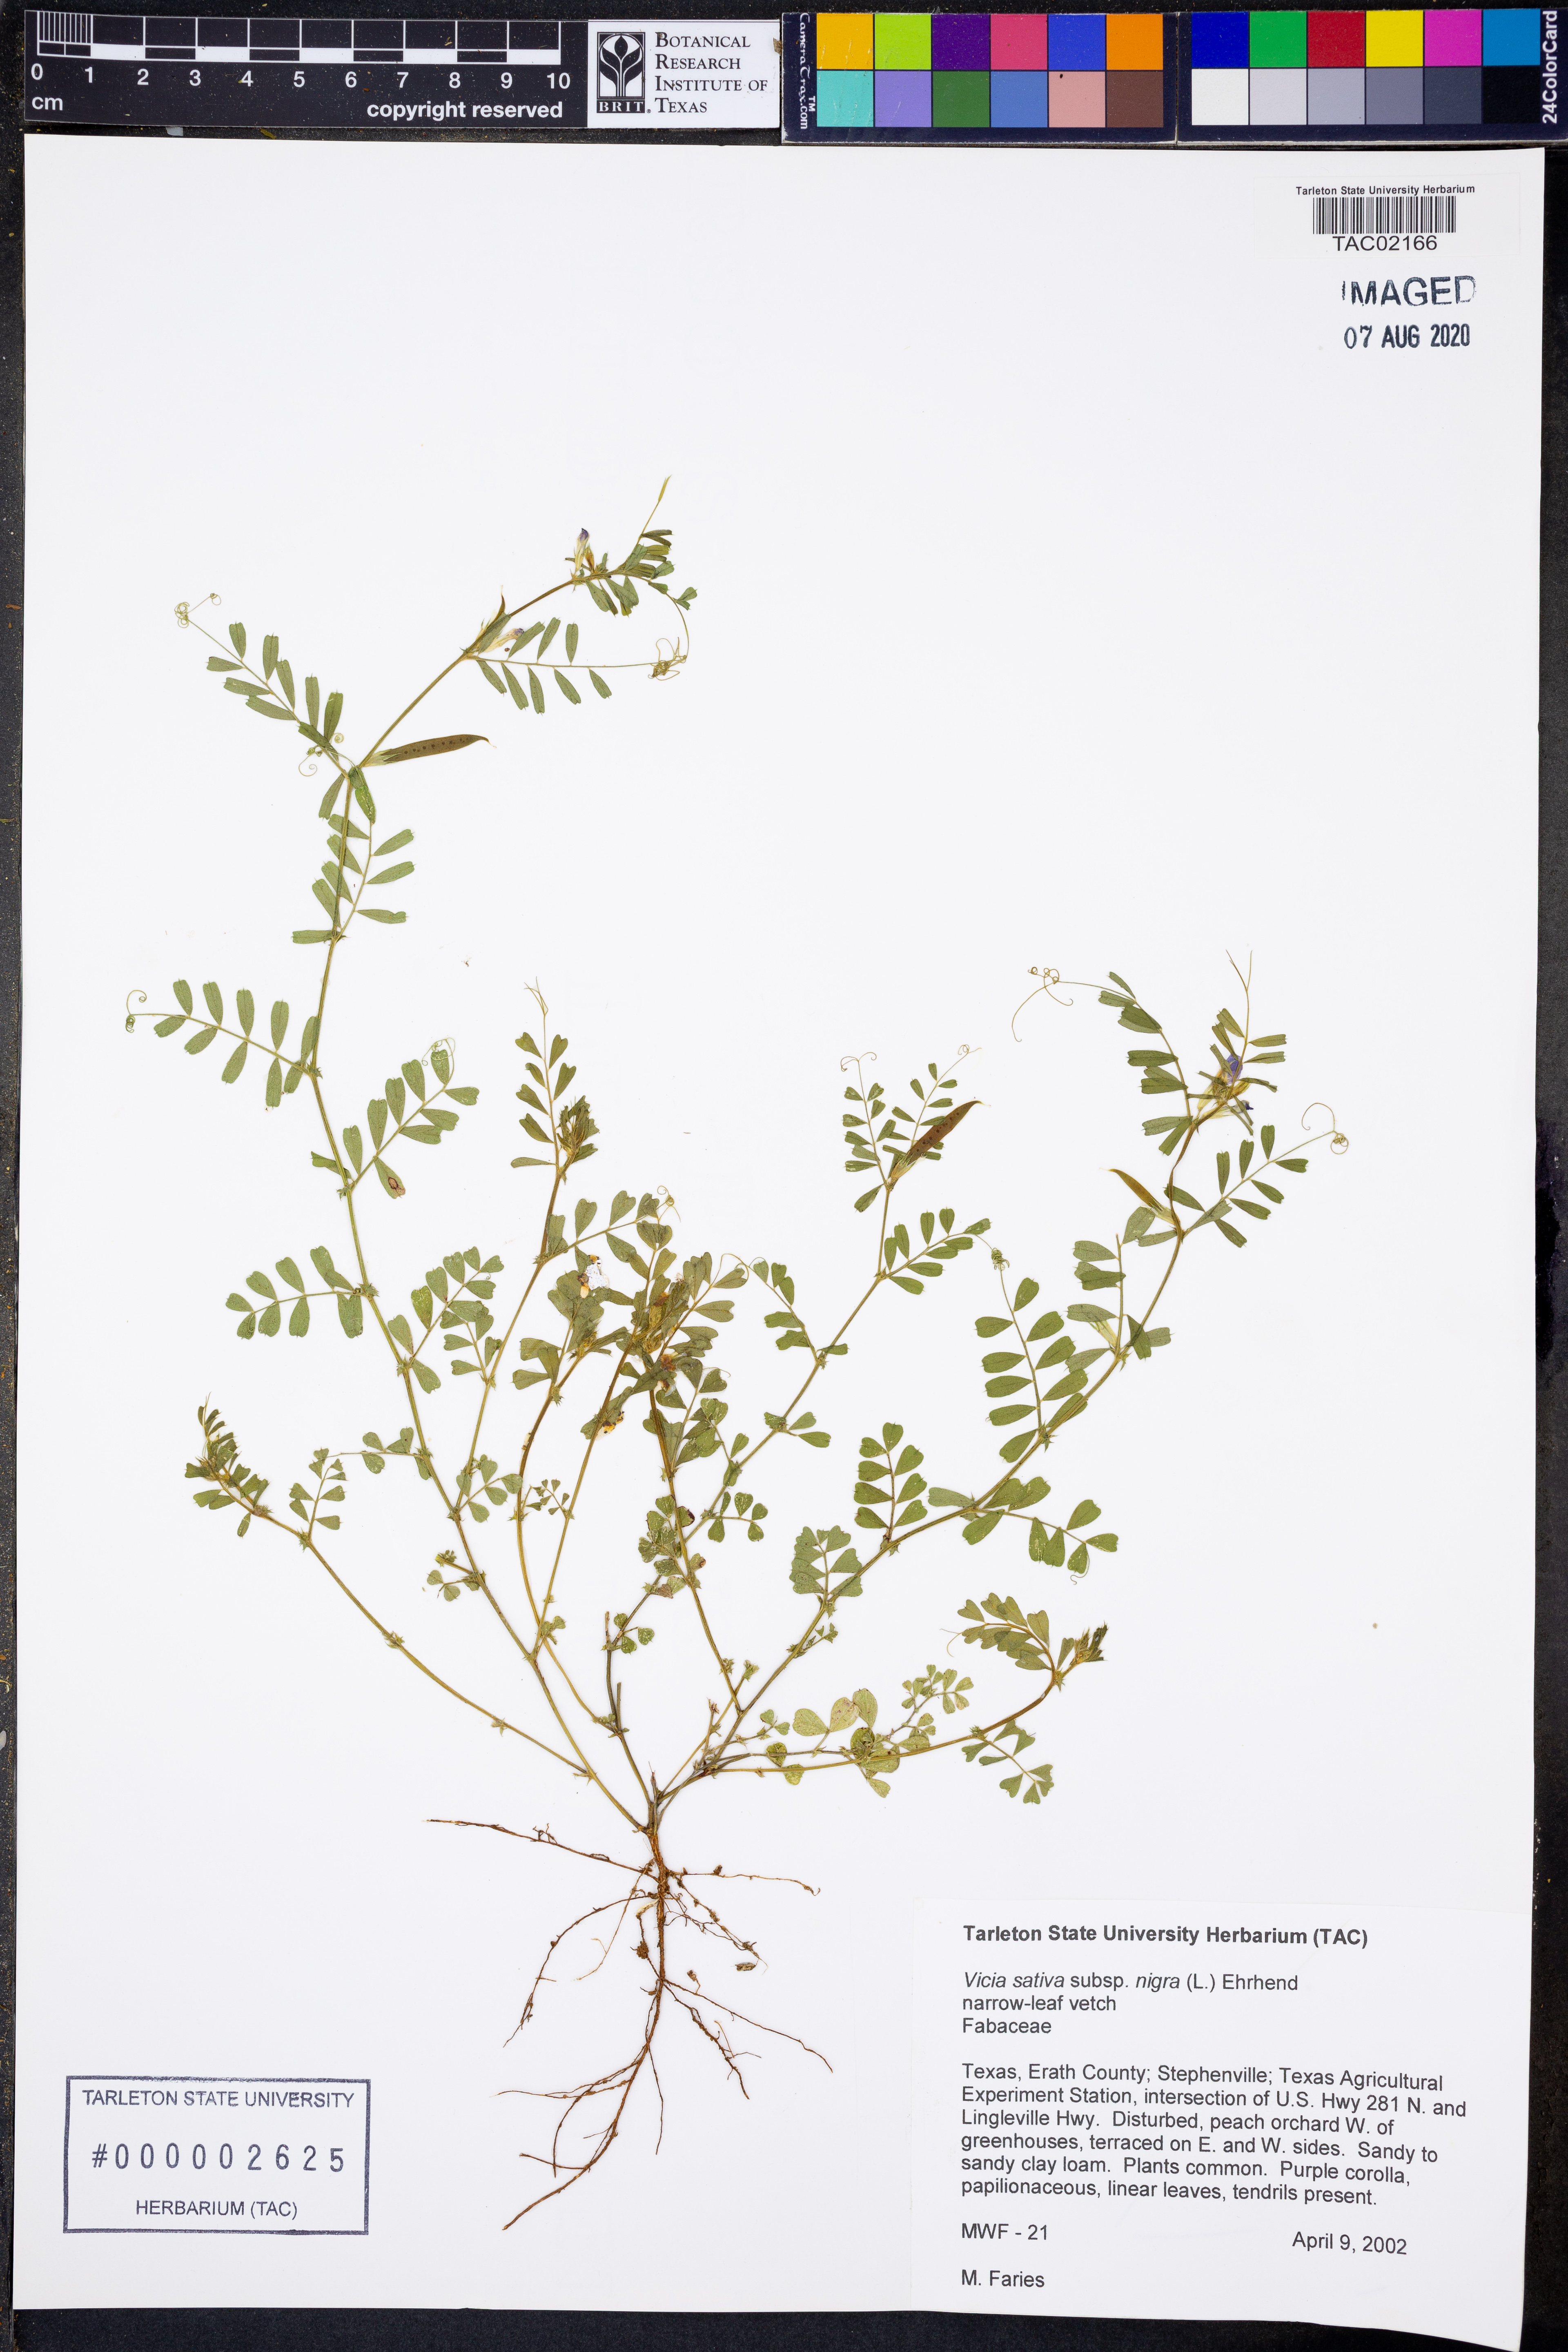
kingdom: Plantae
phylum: Tracheophyta
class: Magnoliopsida
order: Fabales
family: Fabaceae
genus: Vicia
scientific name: Vicia sativa
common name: Garden vetch
